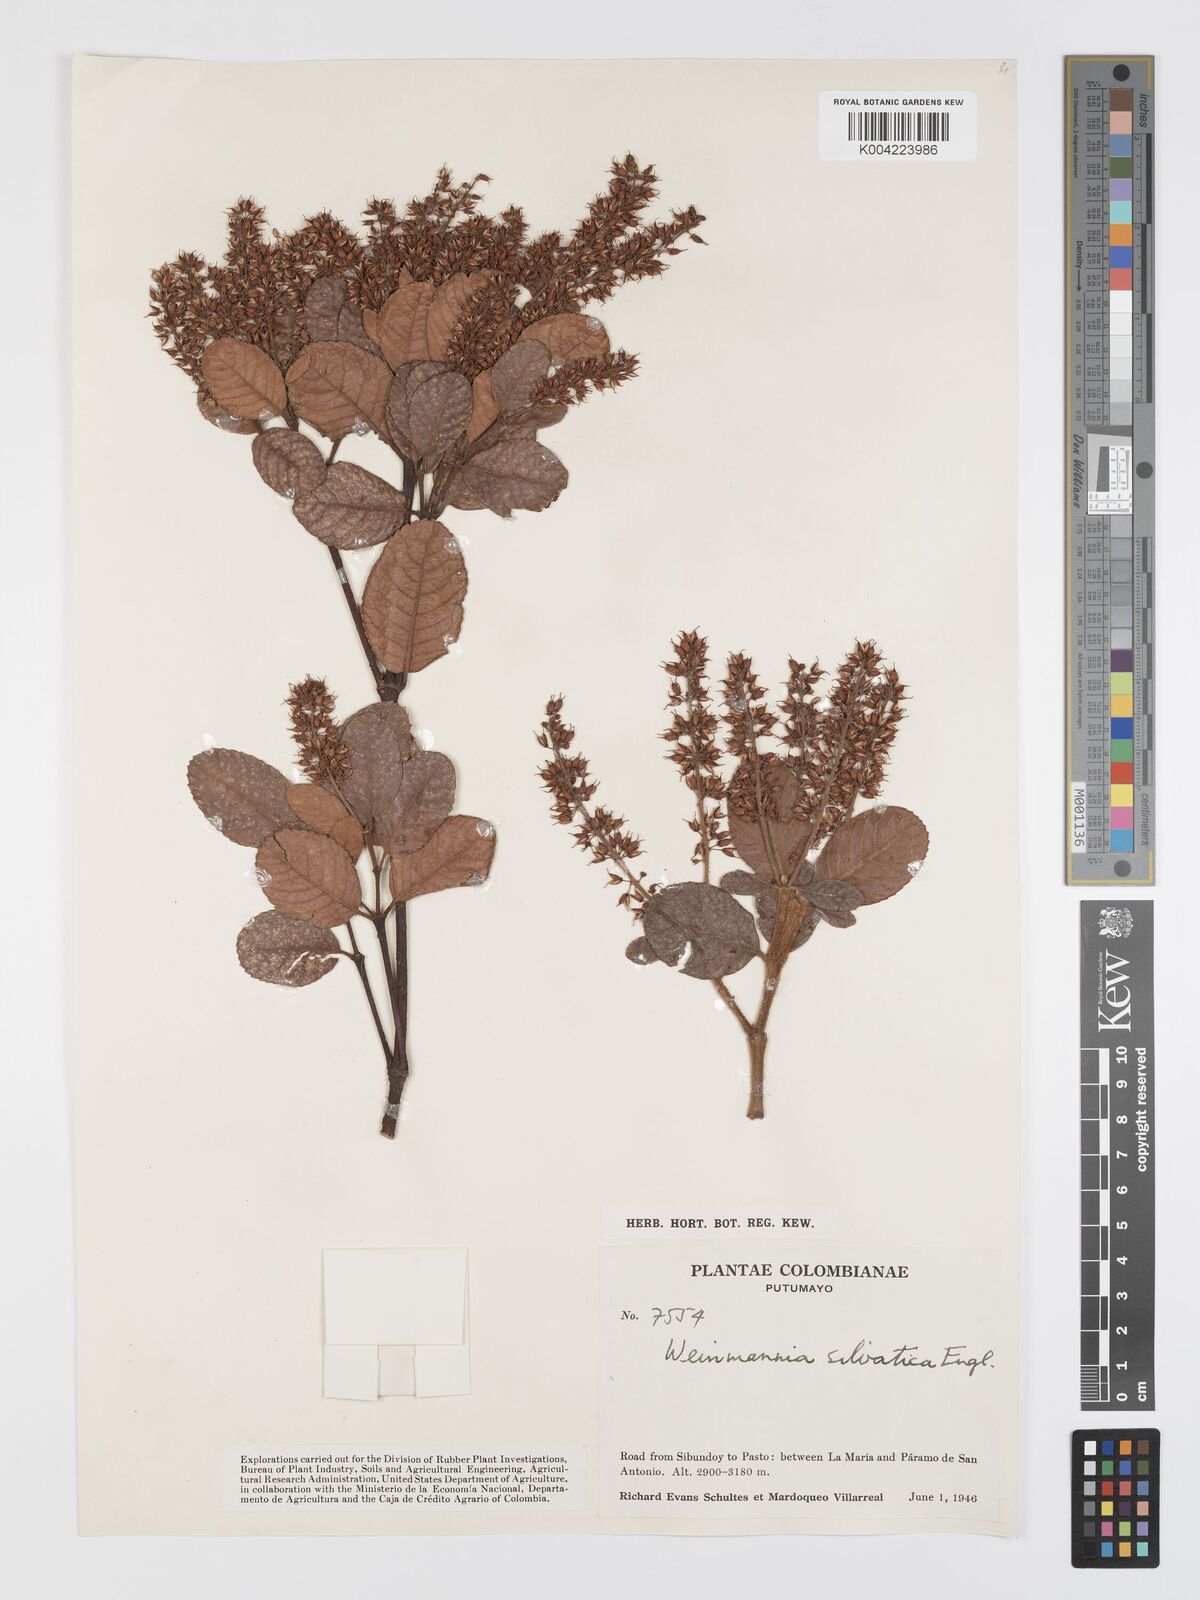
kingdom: Plantae
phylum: Tracheophyta
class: Magnoliopsida
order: Oxalidales
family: Cunoniaceae
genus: Weinmannia
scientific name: Weinmannia auriculata
